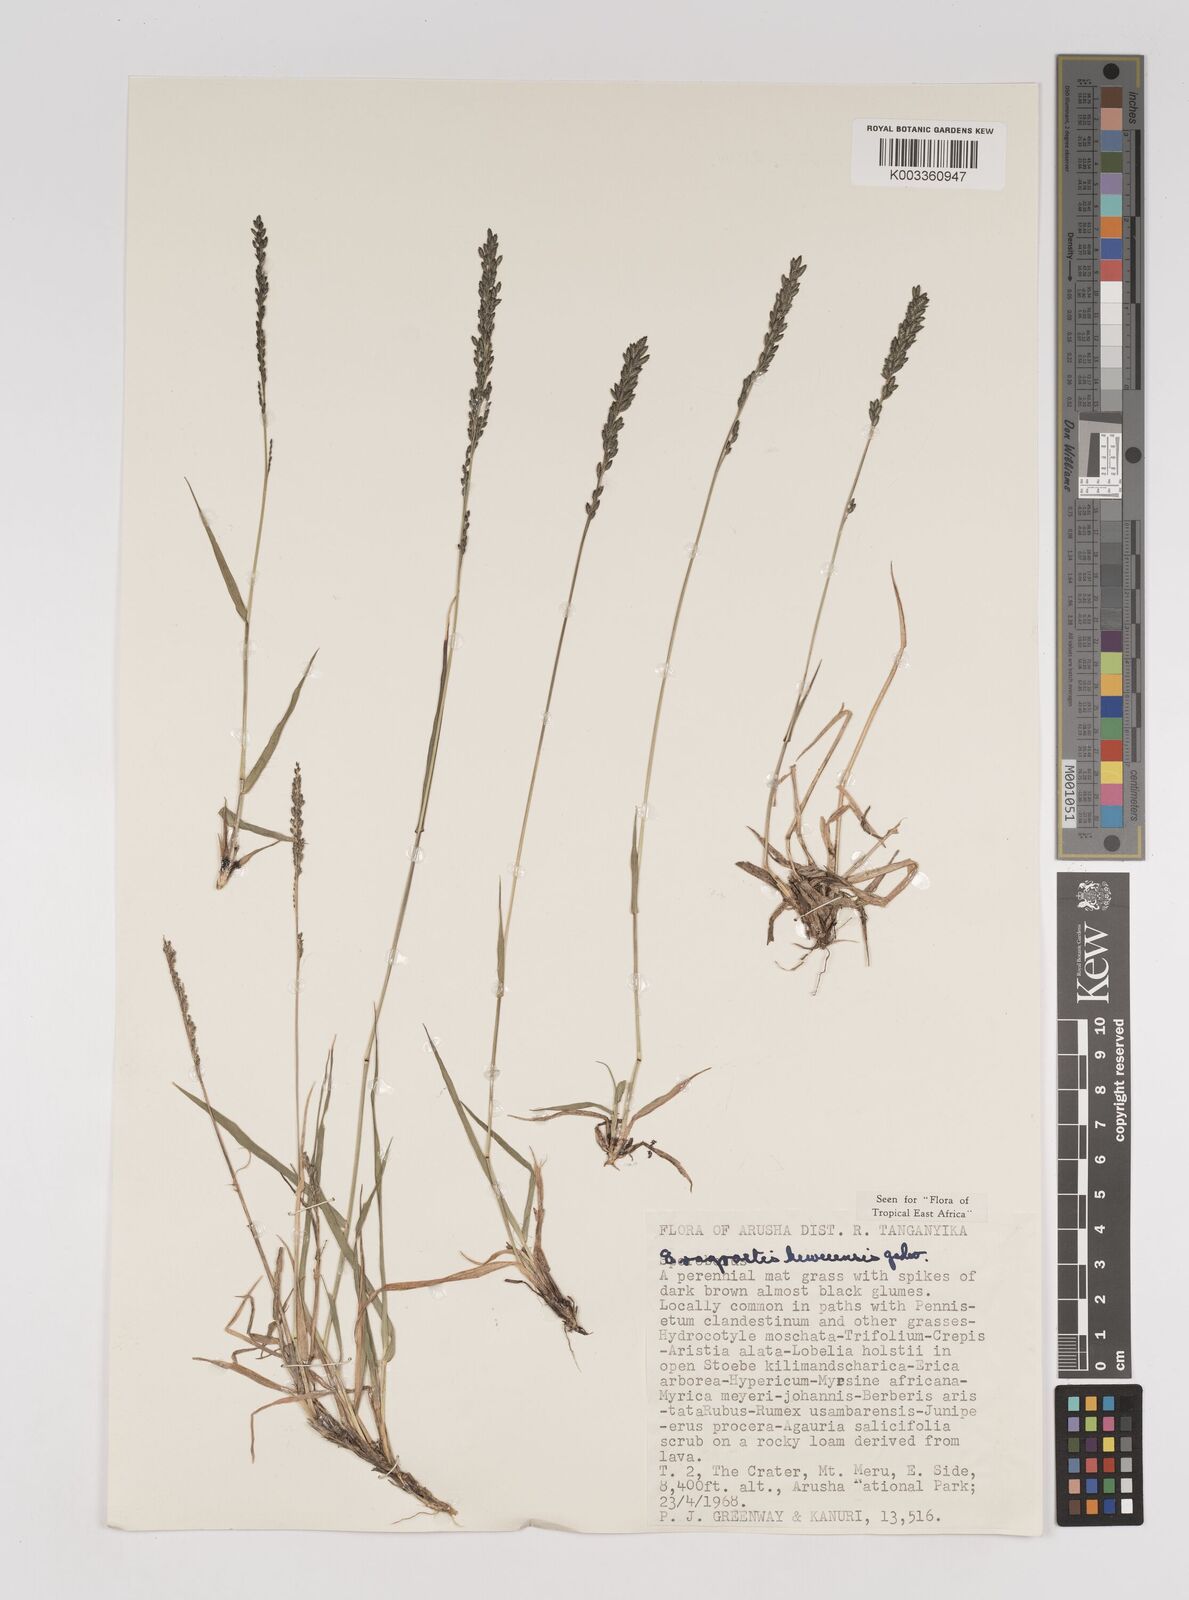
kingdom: Plantae
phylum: Tracheophyta
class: Liliopsida
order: Poales
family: Poaceae
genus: Eragrostis
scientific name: Eragrostis schweinfurthii
